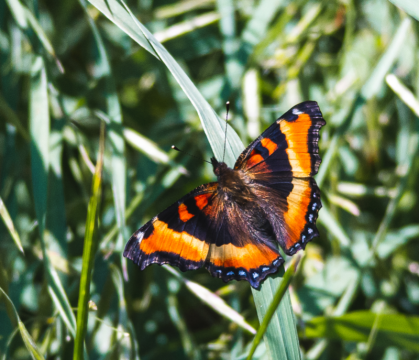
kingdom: Animalia
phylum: Arthropoda
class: Insecta
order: Lepidoptera
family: Nymphalidae
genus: Aglais
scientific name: Aglais milberti
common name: Milbert's Tortoiseshell
